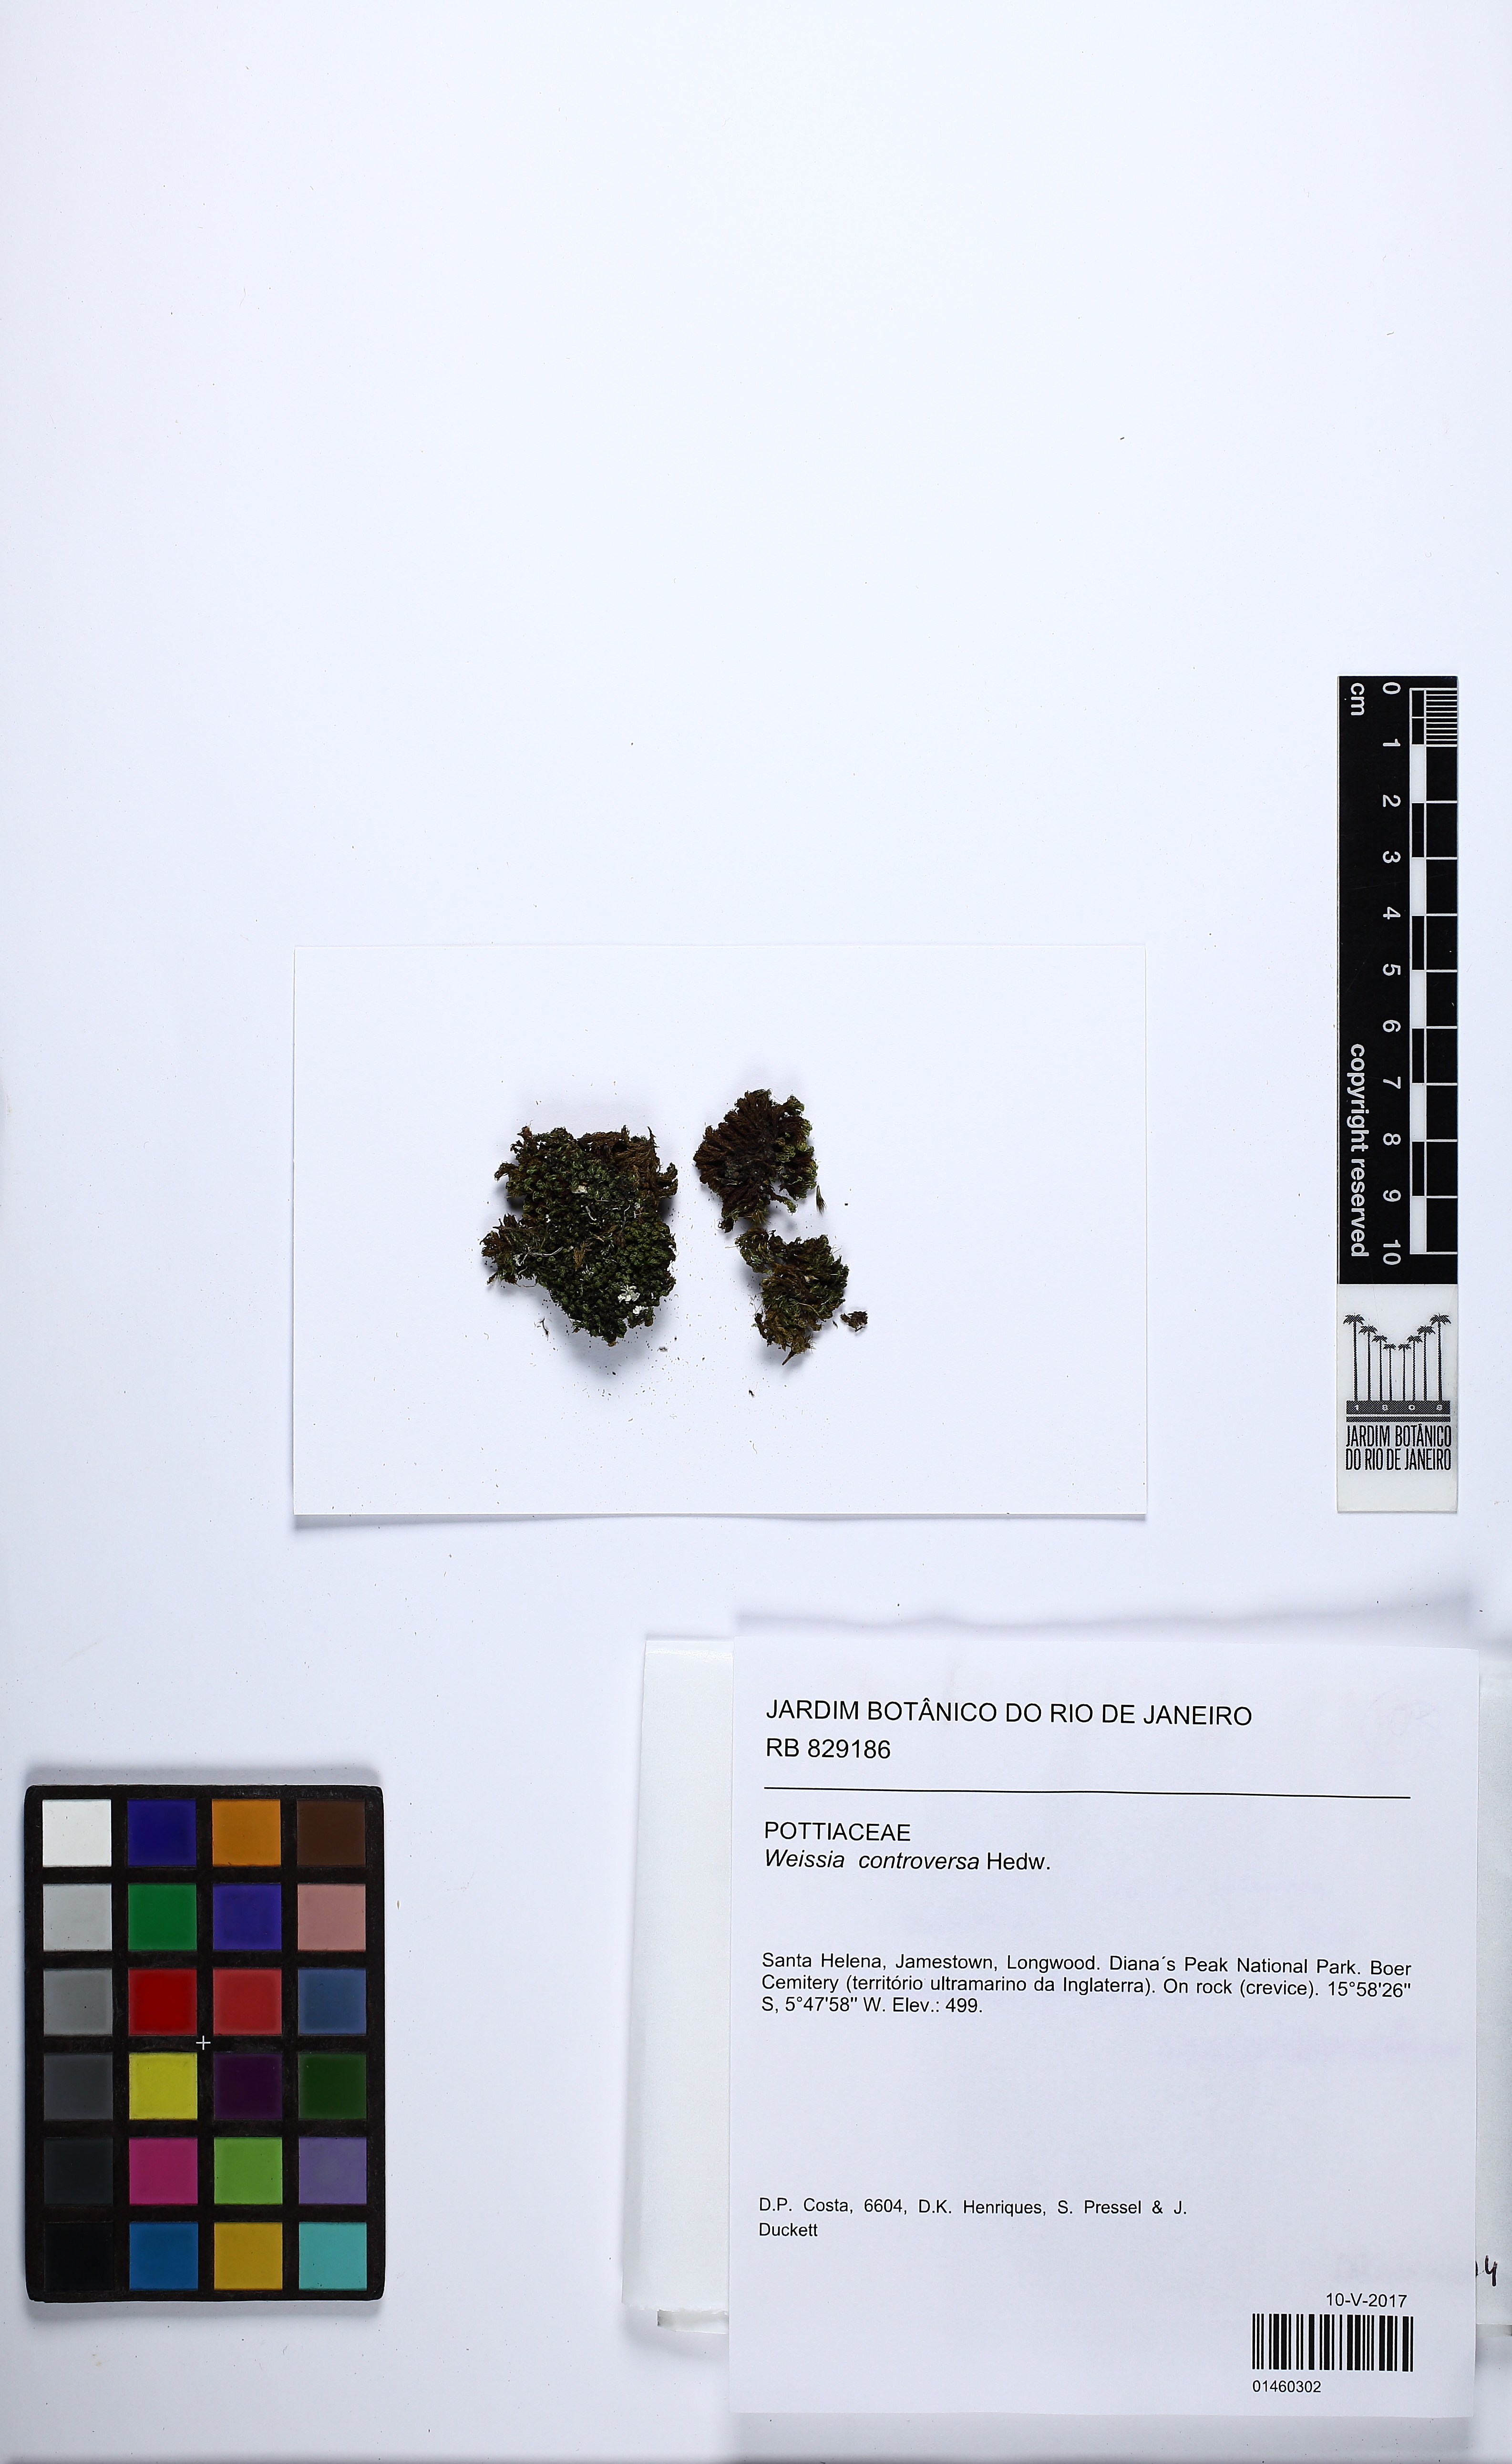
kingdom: Plantae
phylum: Bryophyta
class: Bryopsida
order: Pottiales
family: Pottiaceae
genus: Weissia
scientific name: Weissia controversa
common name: Green-tufted stubble moss
